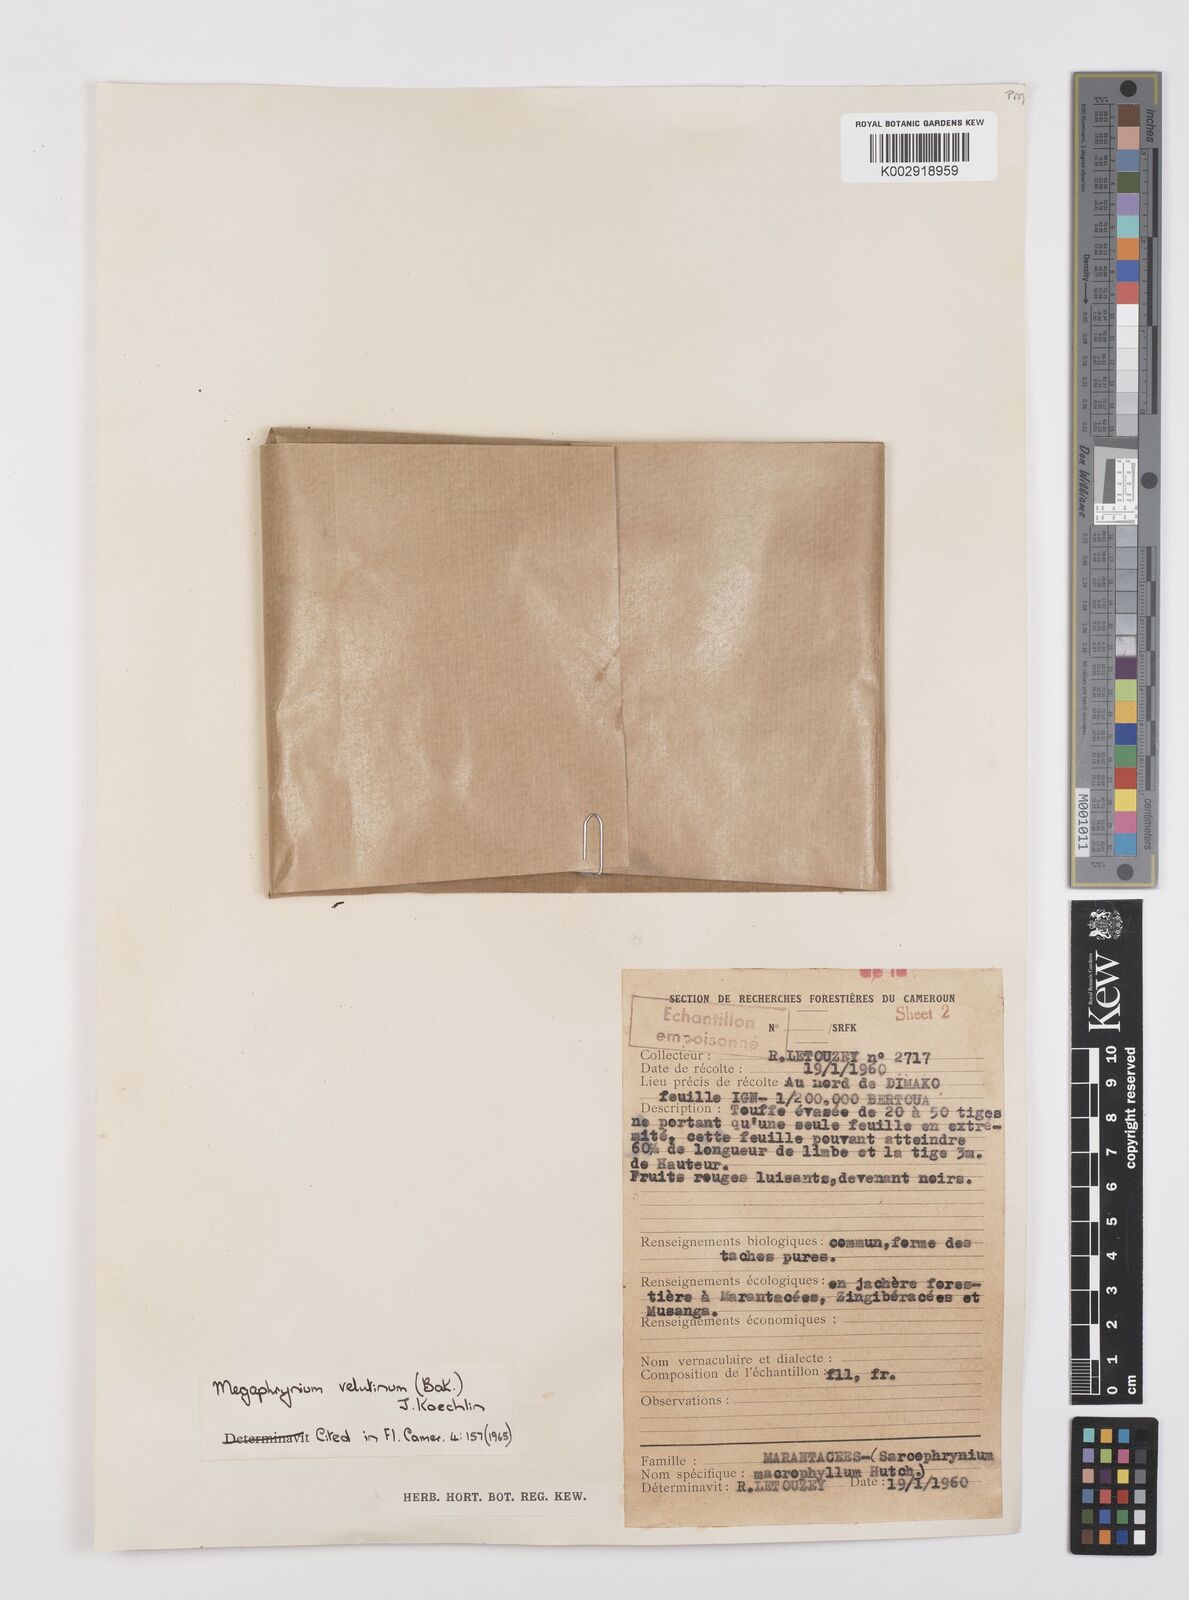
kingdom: Plantae
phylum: Tracheophyta
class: Liliopsida
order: Zingiberales
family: Marantaceae
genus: Megaphrynium
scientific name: Megaphrynium velutinum
